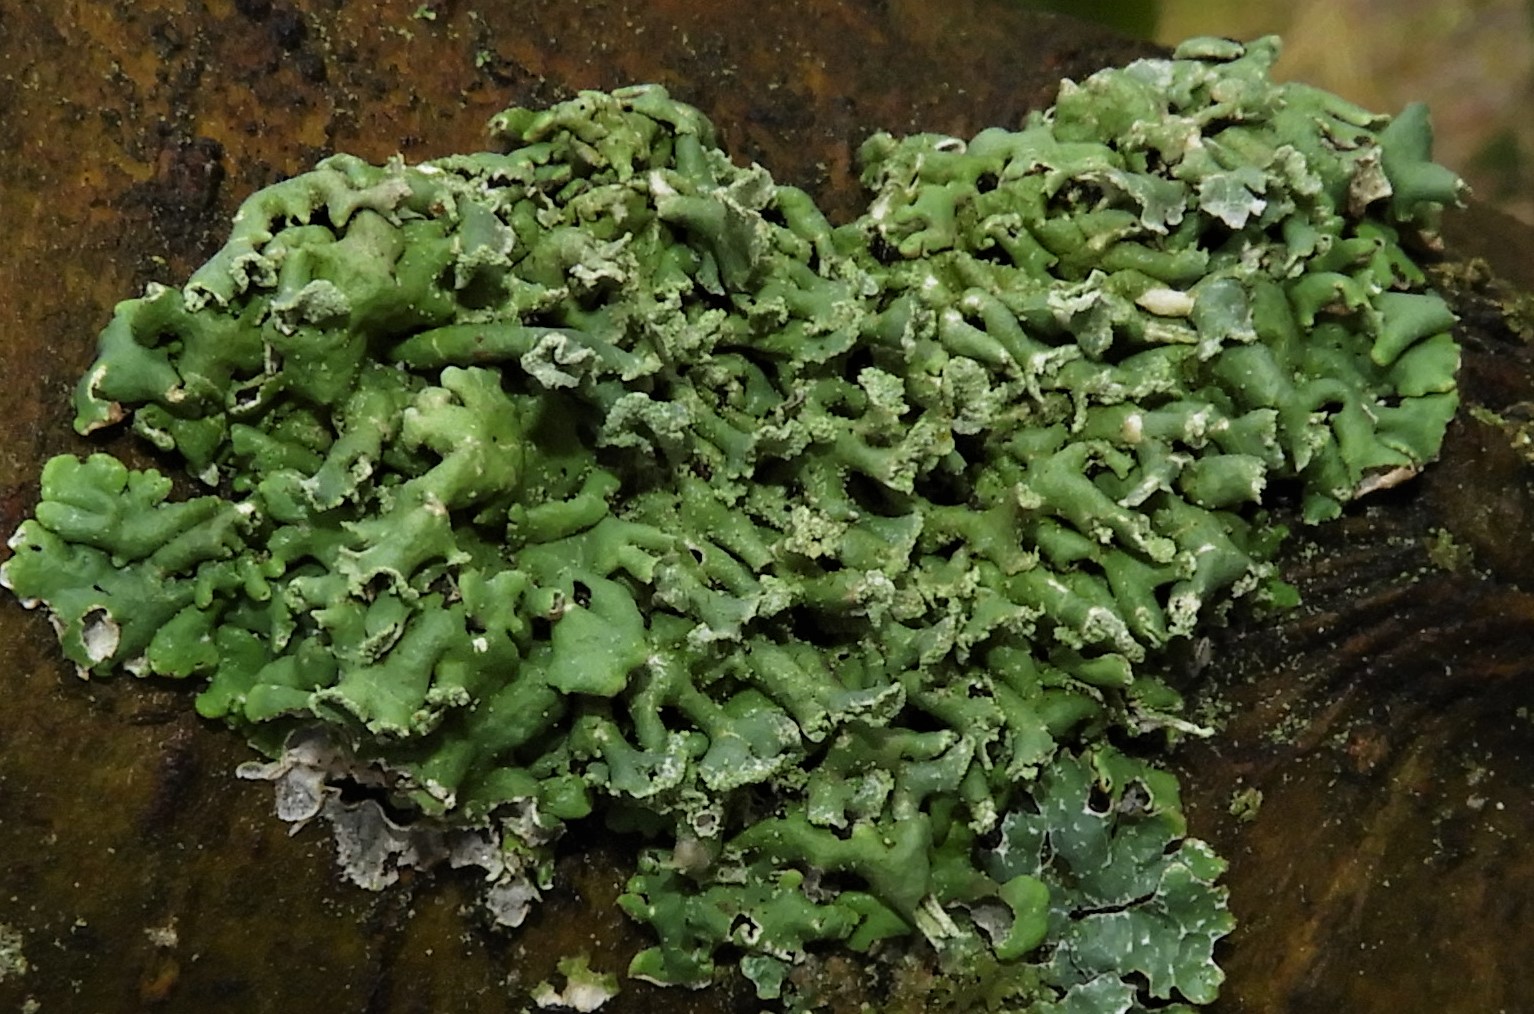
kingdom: Fungi
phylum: Ascomycota
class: Lecanoromycetes
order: Lecanorales
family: Parmeliaceae
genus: Hypogymnia
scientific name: Hypogymnia physodes
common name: almindelig kvistlav
